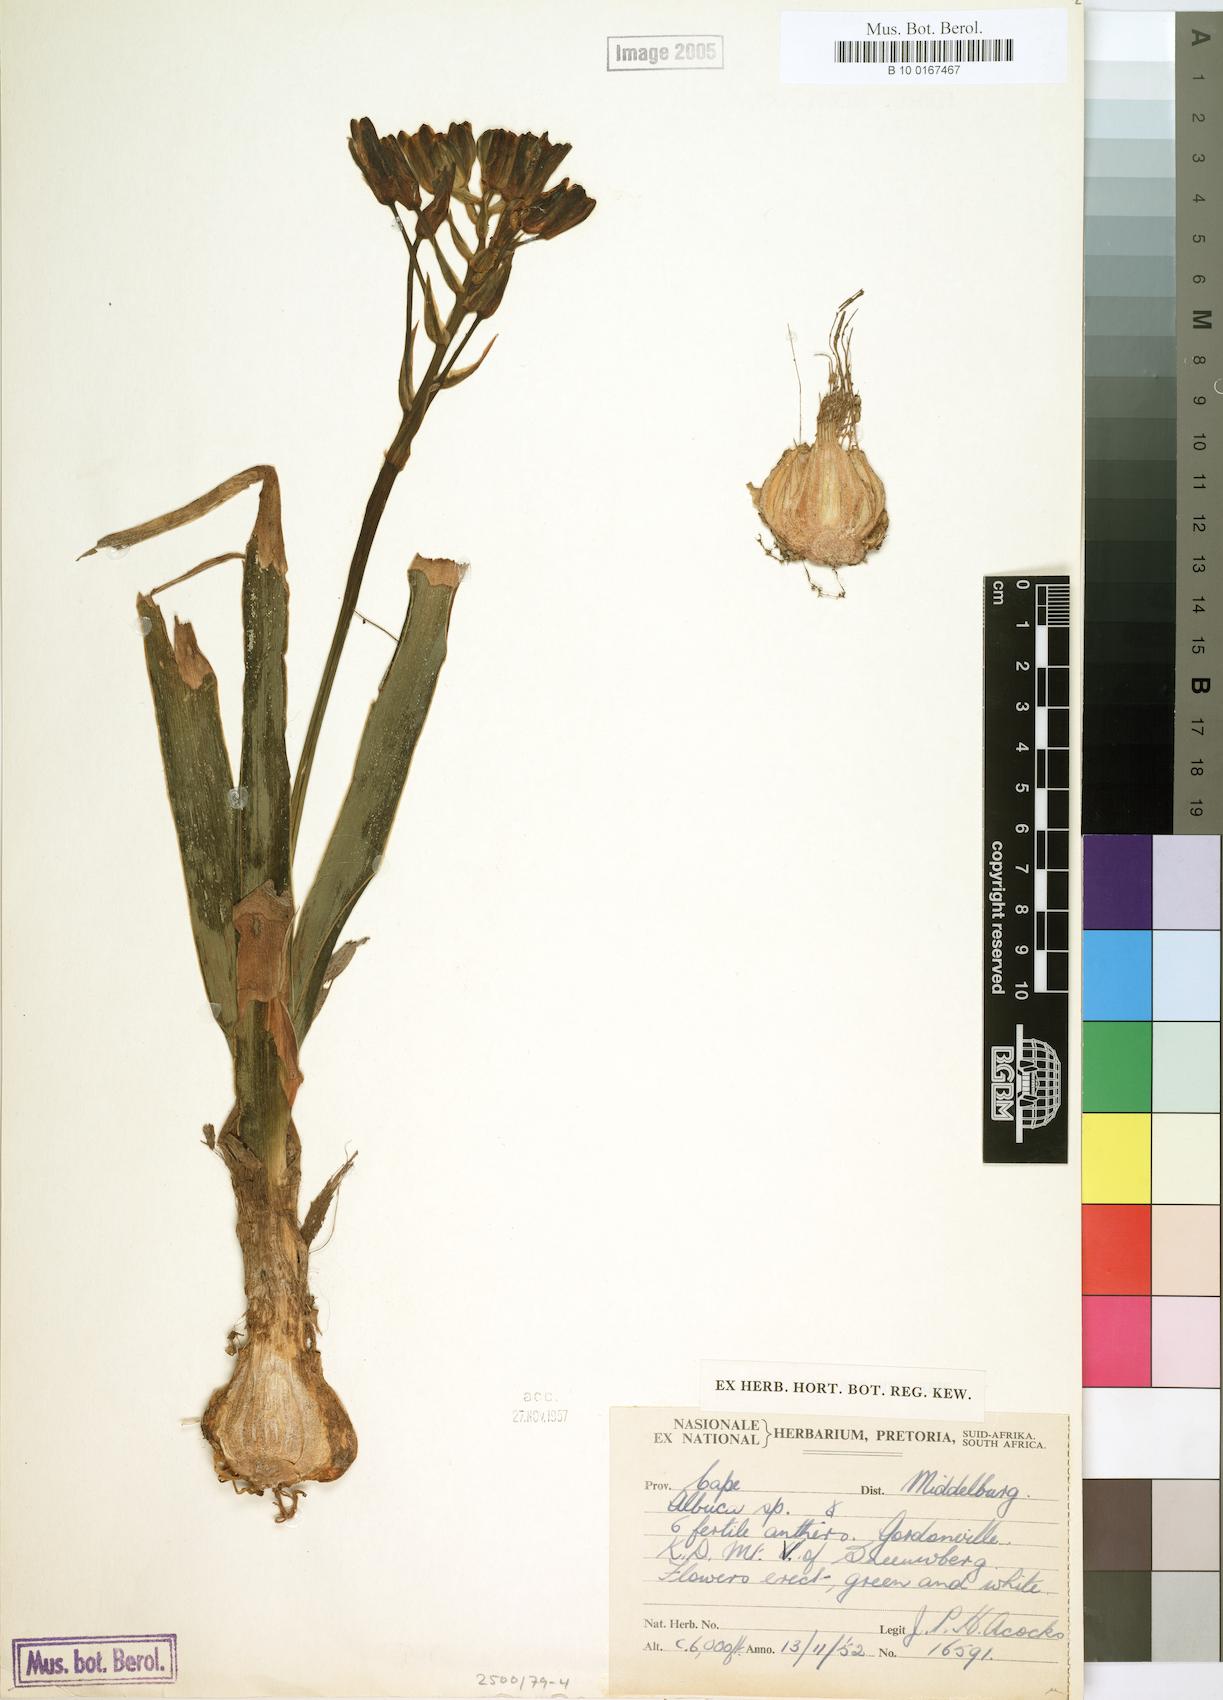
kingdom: Plantae
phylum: Tracheophyta
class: Liliopsida
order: Asparagales
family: Asparagaceae
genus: Albuca
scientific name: Albuca
